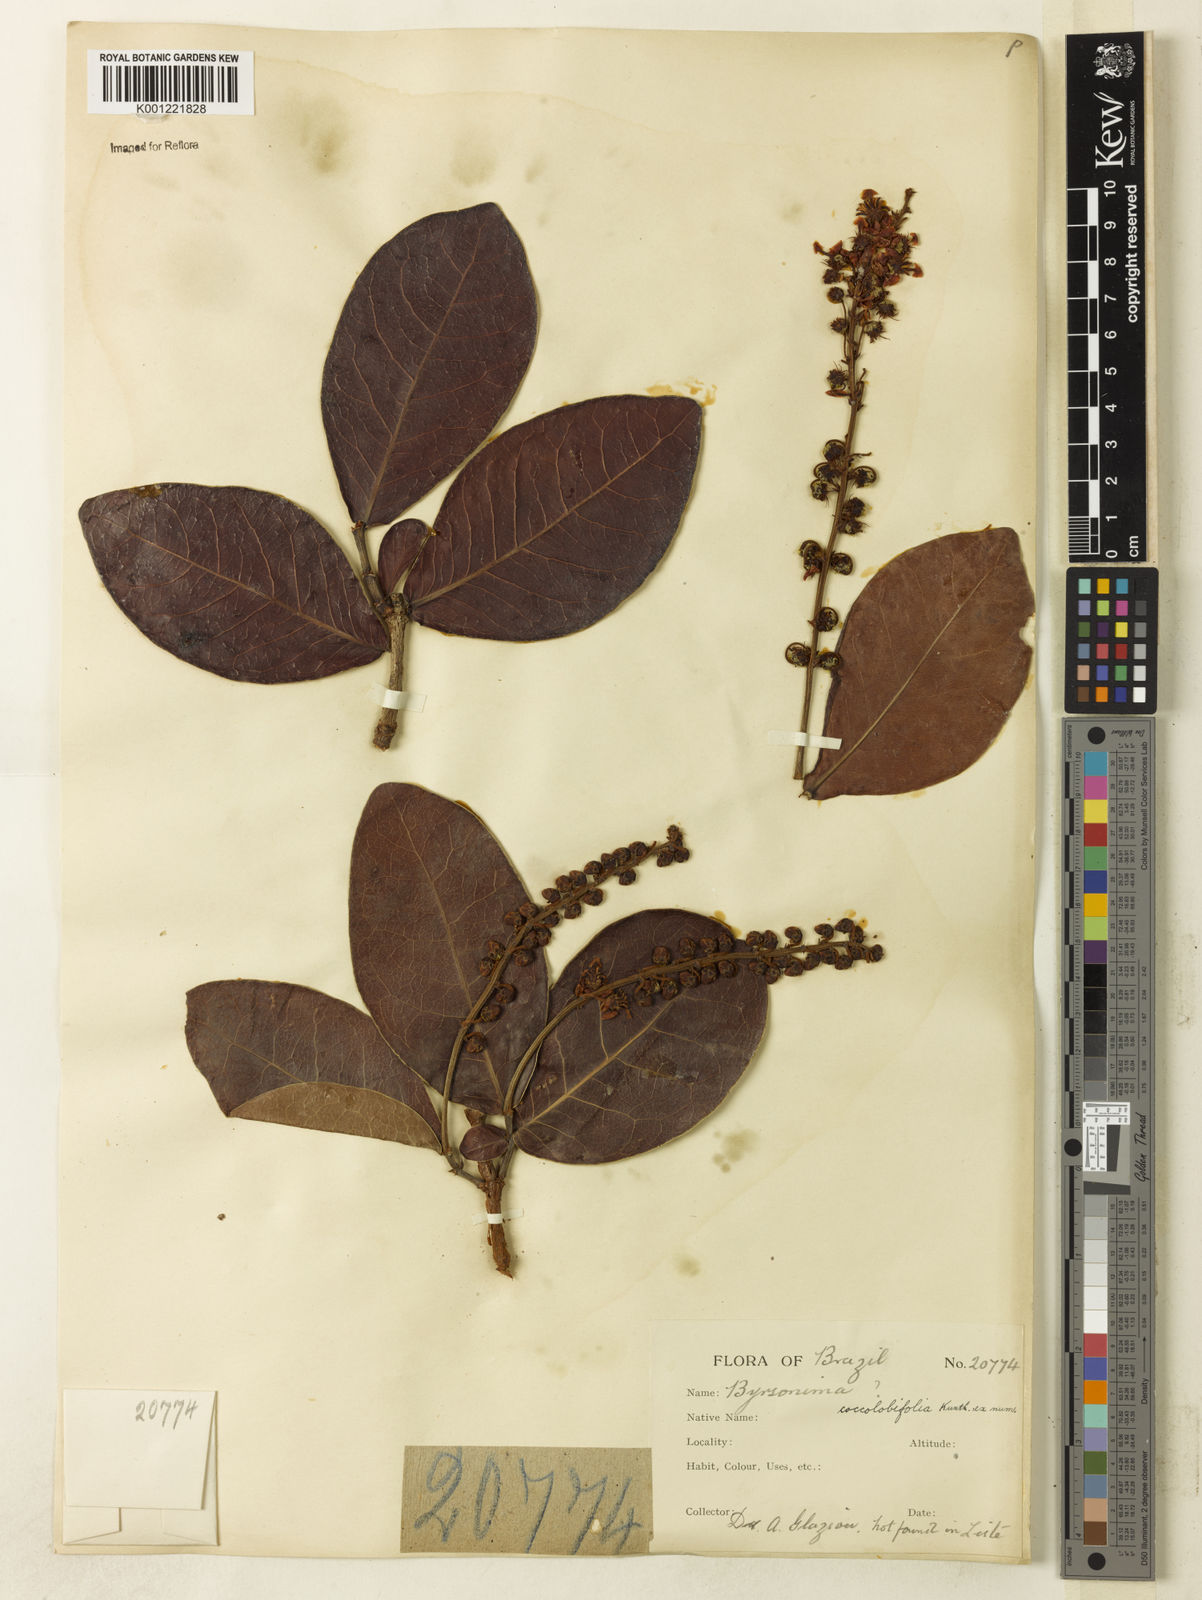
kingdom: Plantae
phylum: Tracheophyta
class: Magnoliopsida
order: Malpighiales
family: Malpighiaceae
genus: Byrsonima
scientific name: Byrsonima coccolobifolia
